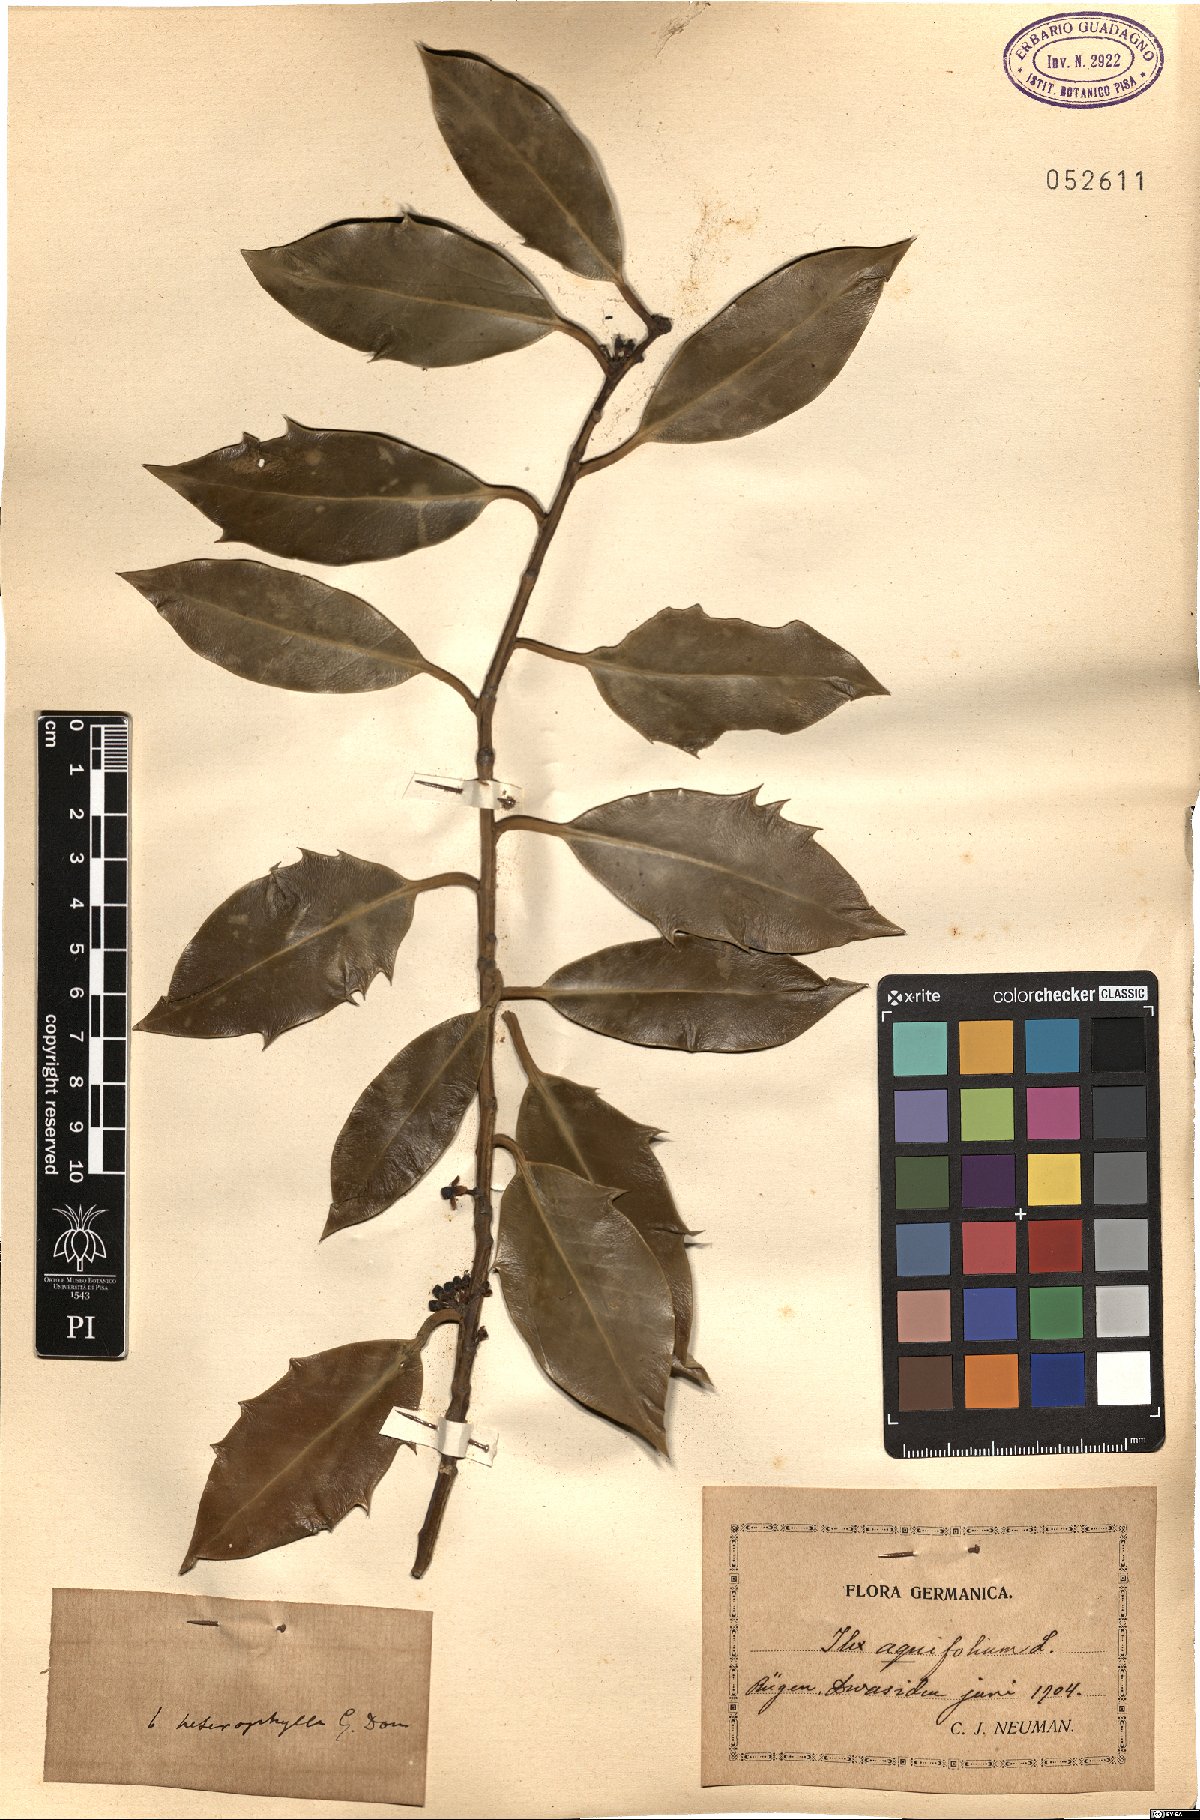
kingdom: Plantae
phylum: Tracheophyta
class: Magnoliopsida
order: Aquifoliales
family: Aquifoliaceae
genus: Ilex
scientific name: Ilex aquifolium
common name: English holly
